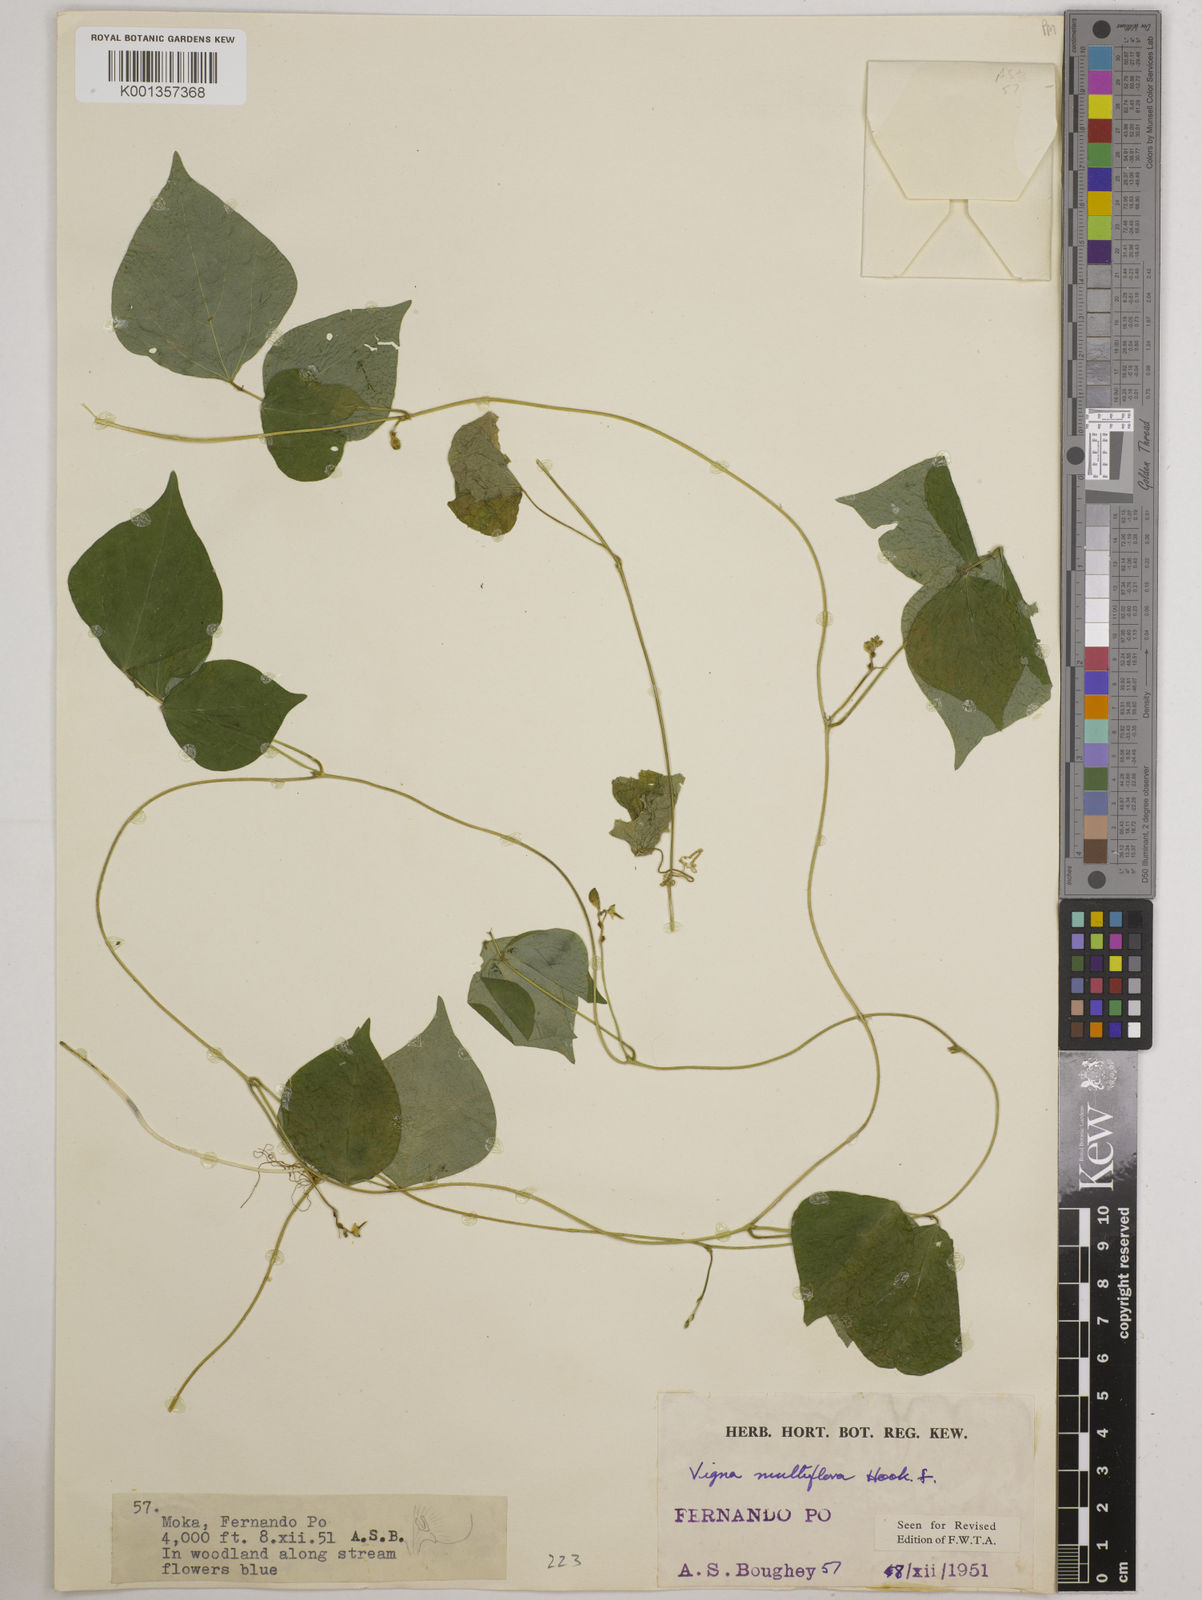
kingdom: Plantae
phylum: Tracheophyta
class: Magnoliopsida
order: Fabales
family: Fabaceae
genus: Vigna
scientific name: Vigna gracilis
